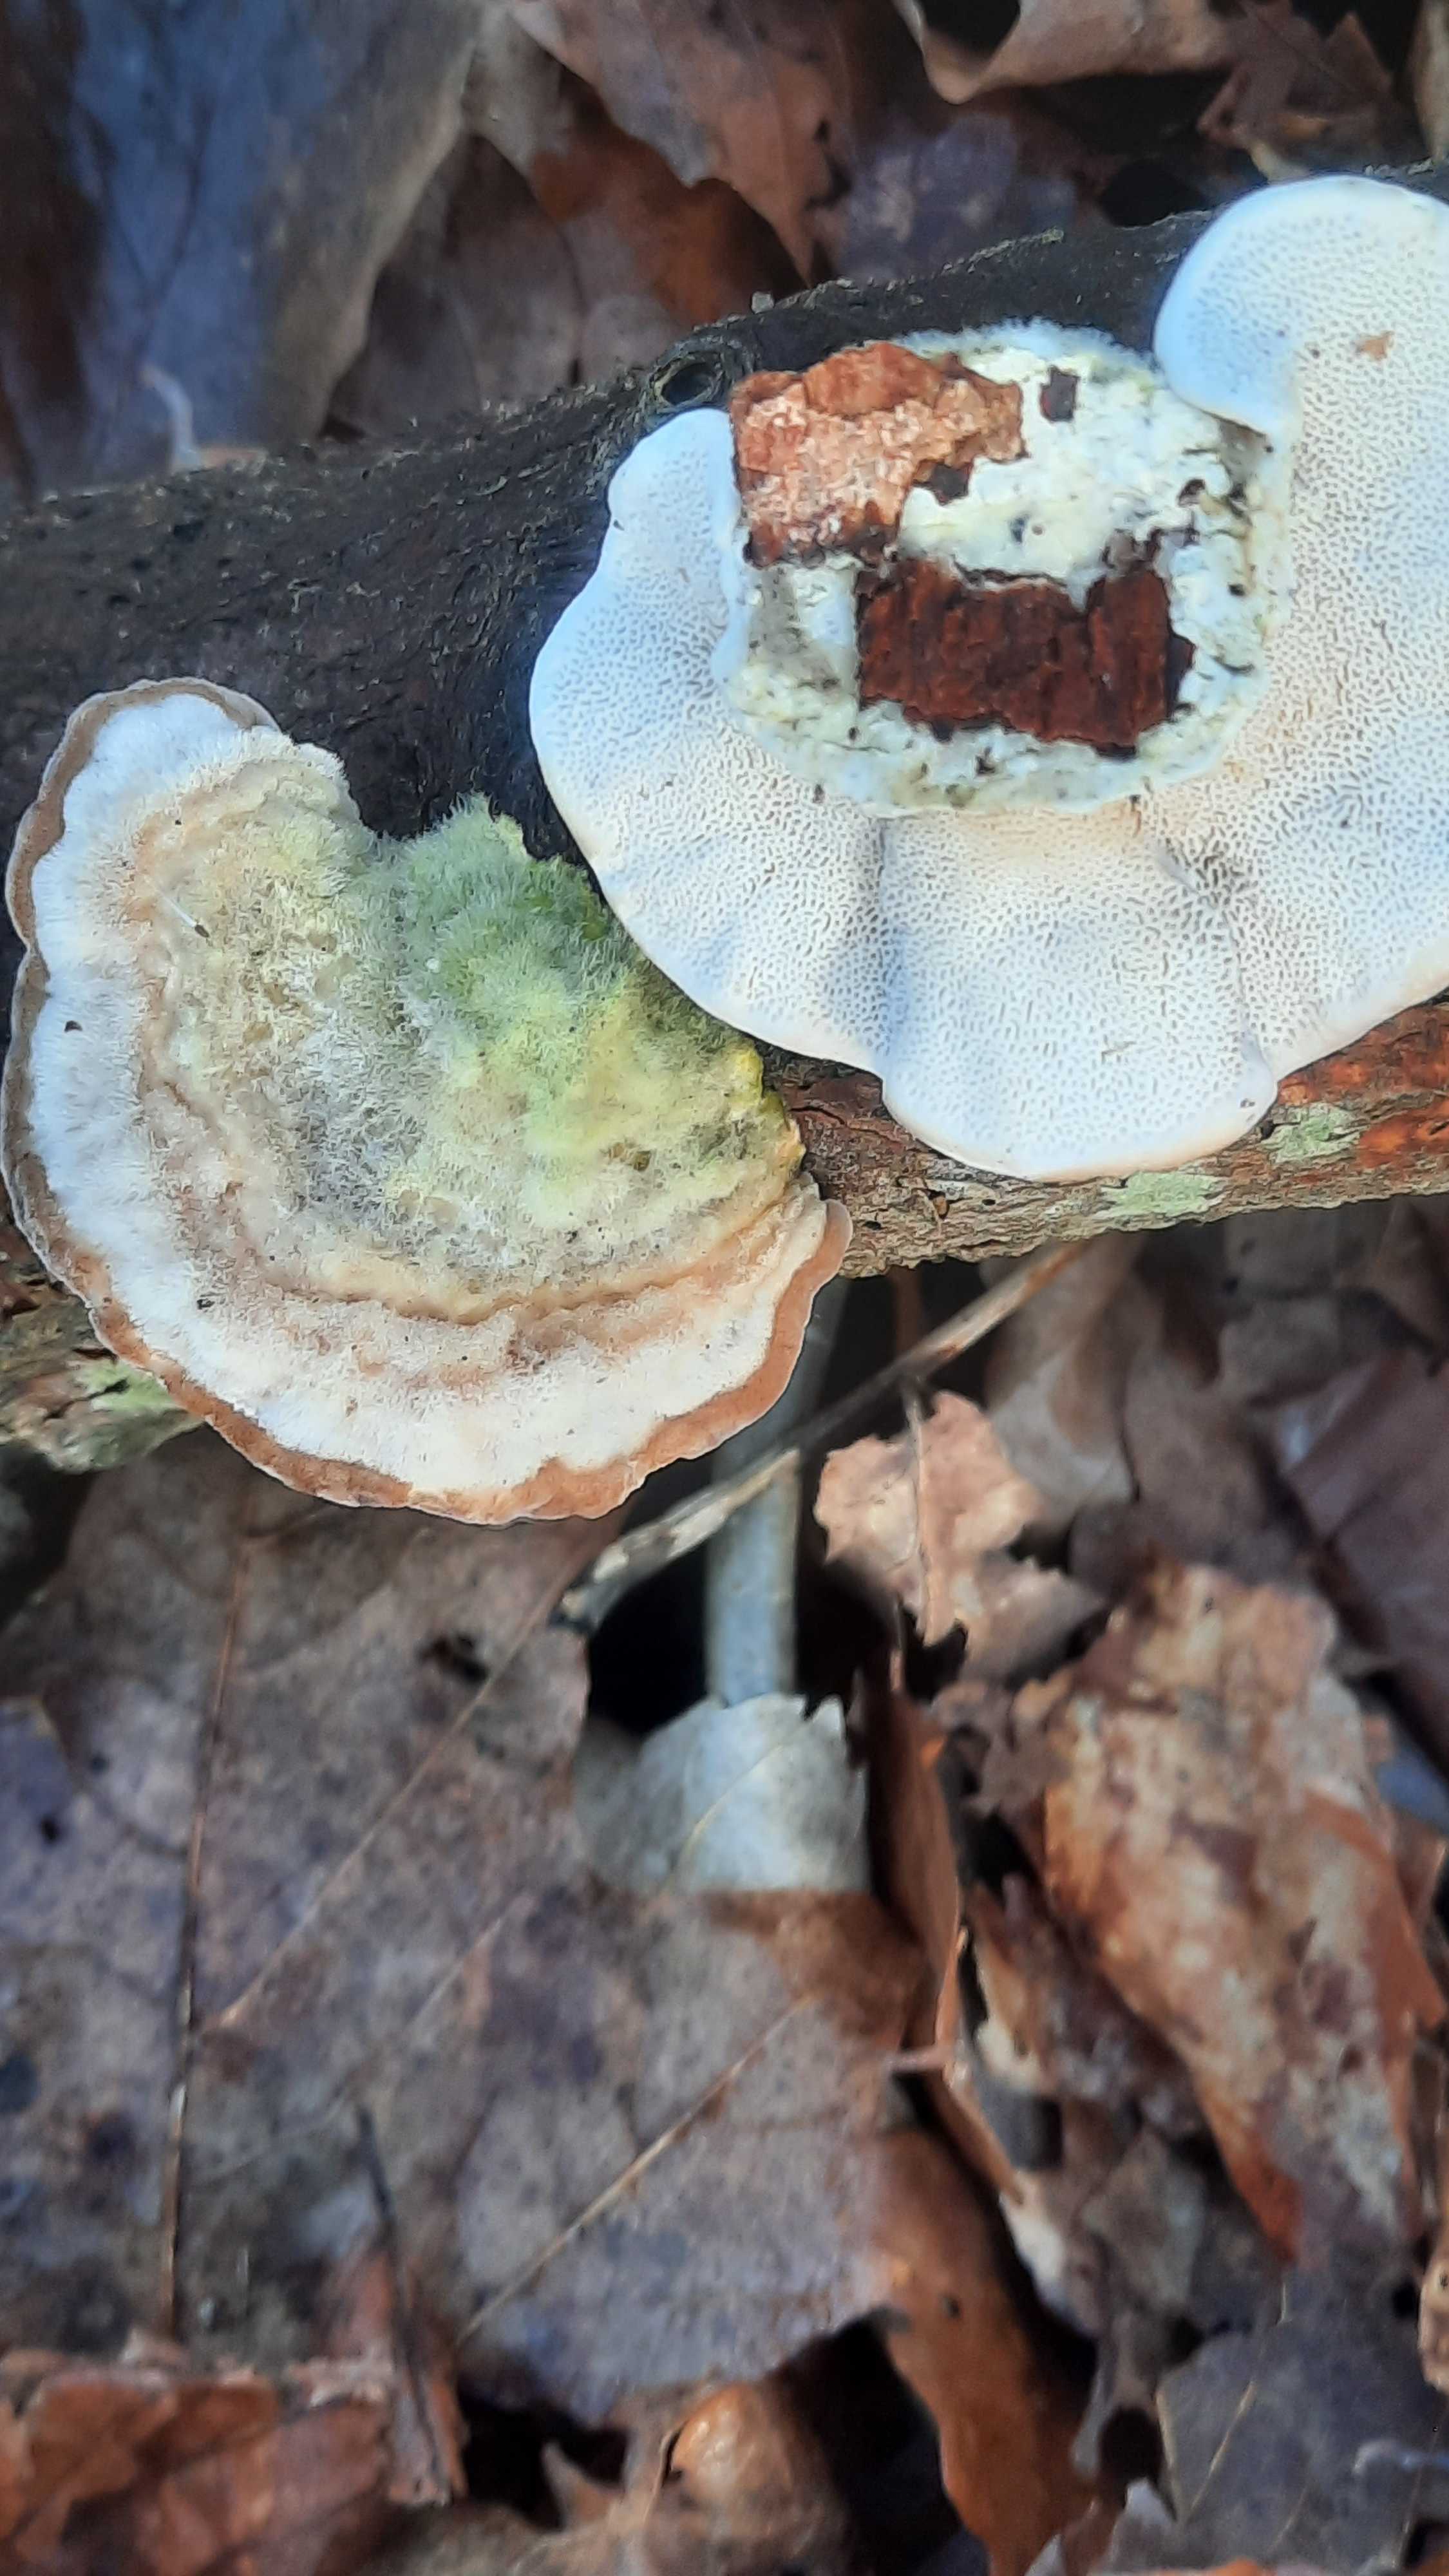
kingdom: Fungi
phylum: Basidiomycota
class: Agaricomycetes
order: Polyporales
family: Polyporaceae
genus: Trametes
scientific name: Trametes hirsuta
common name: håret læderporesvamp
